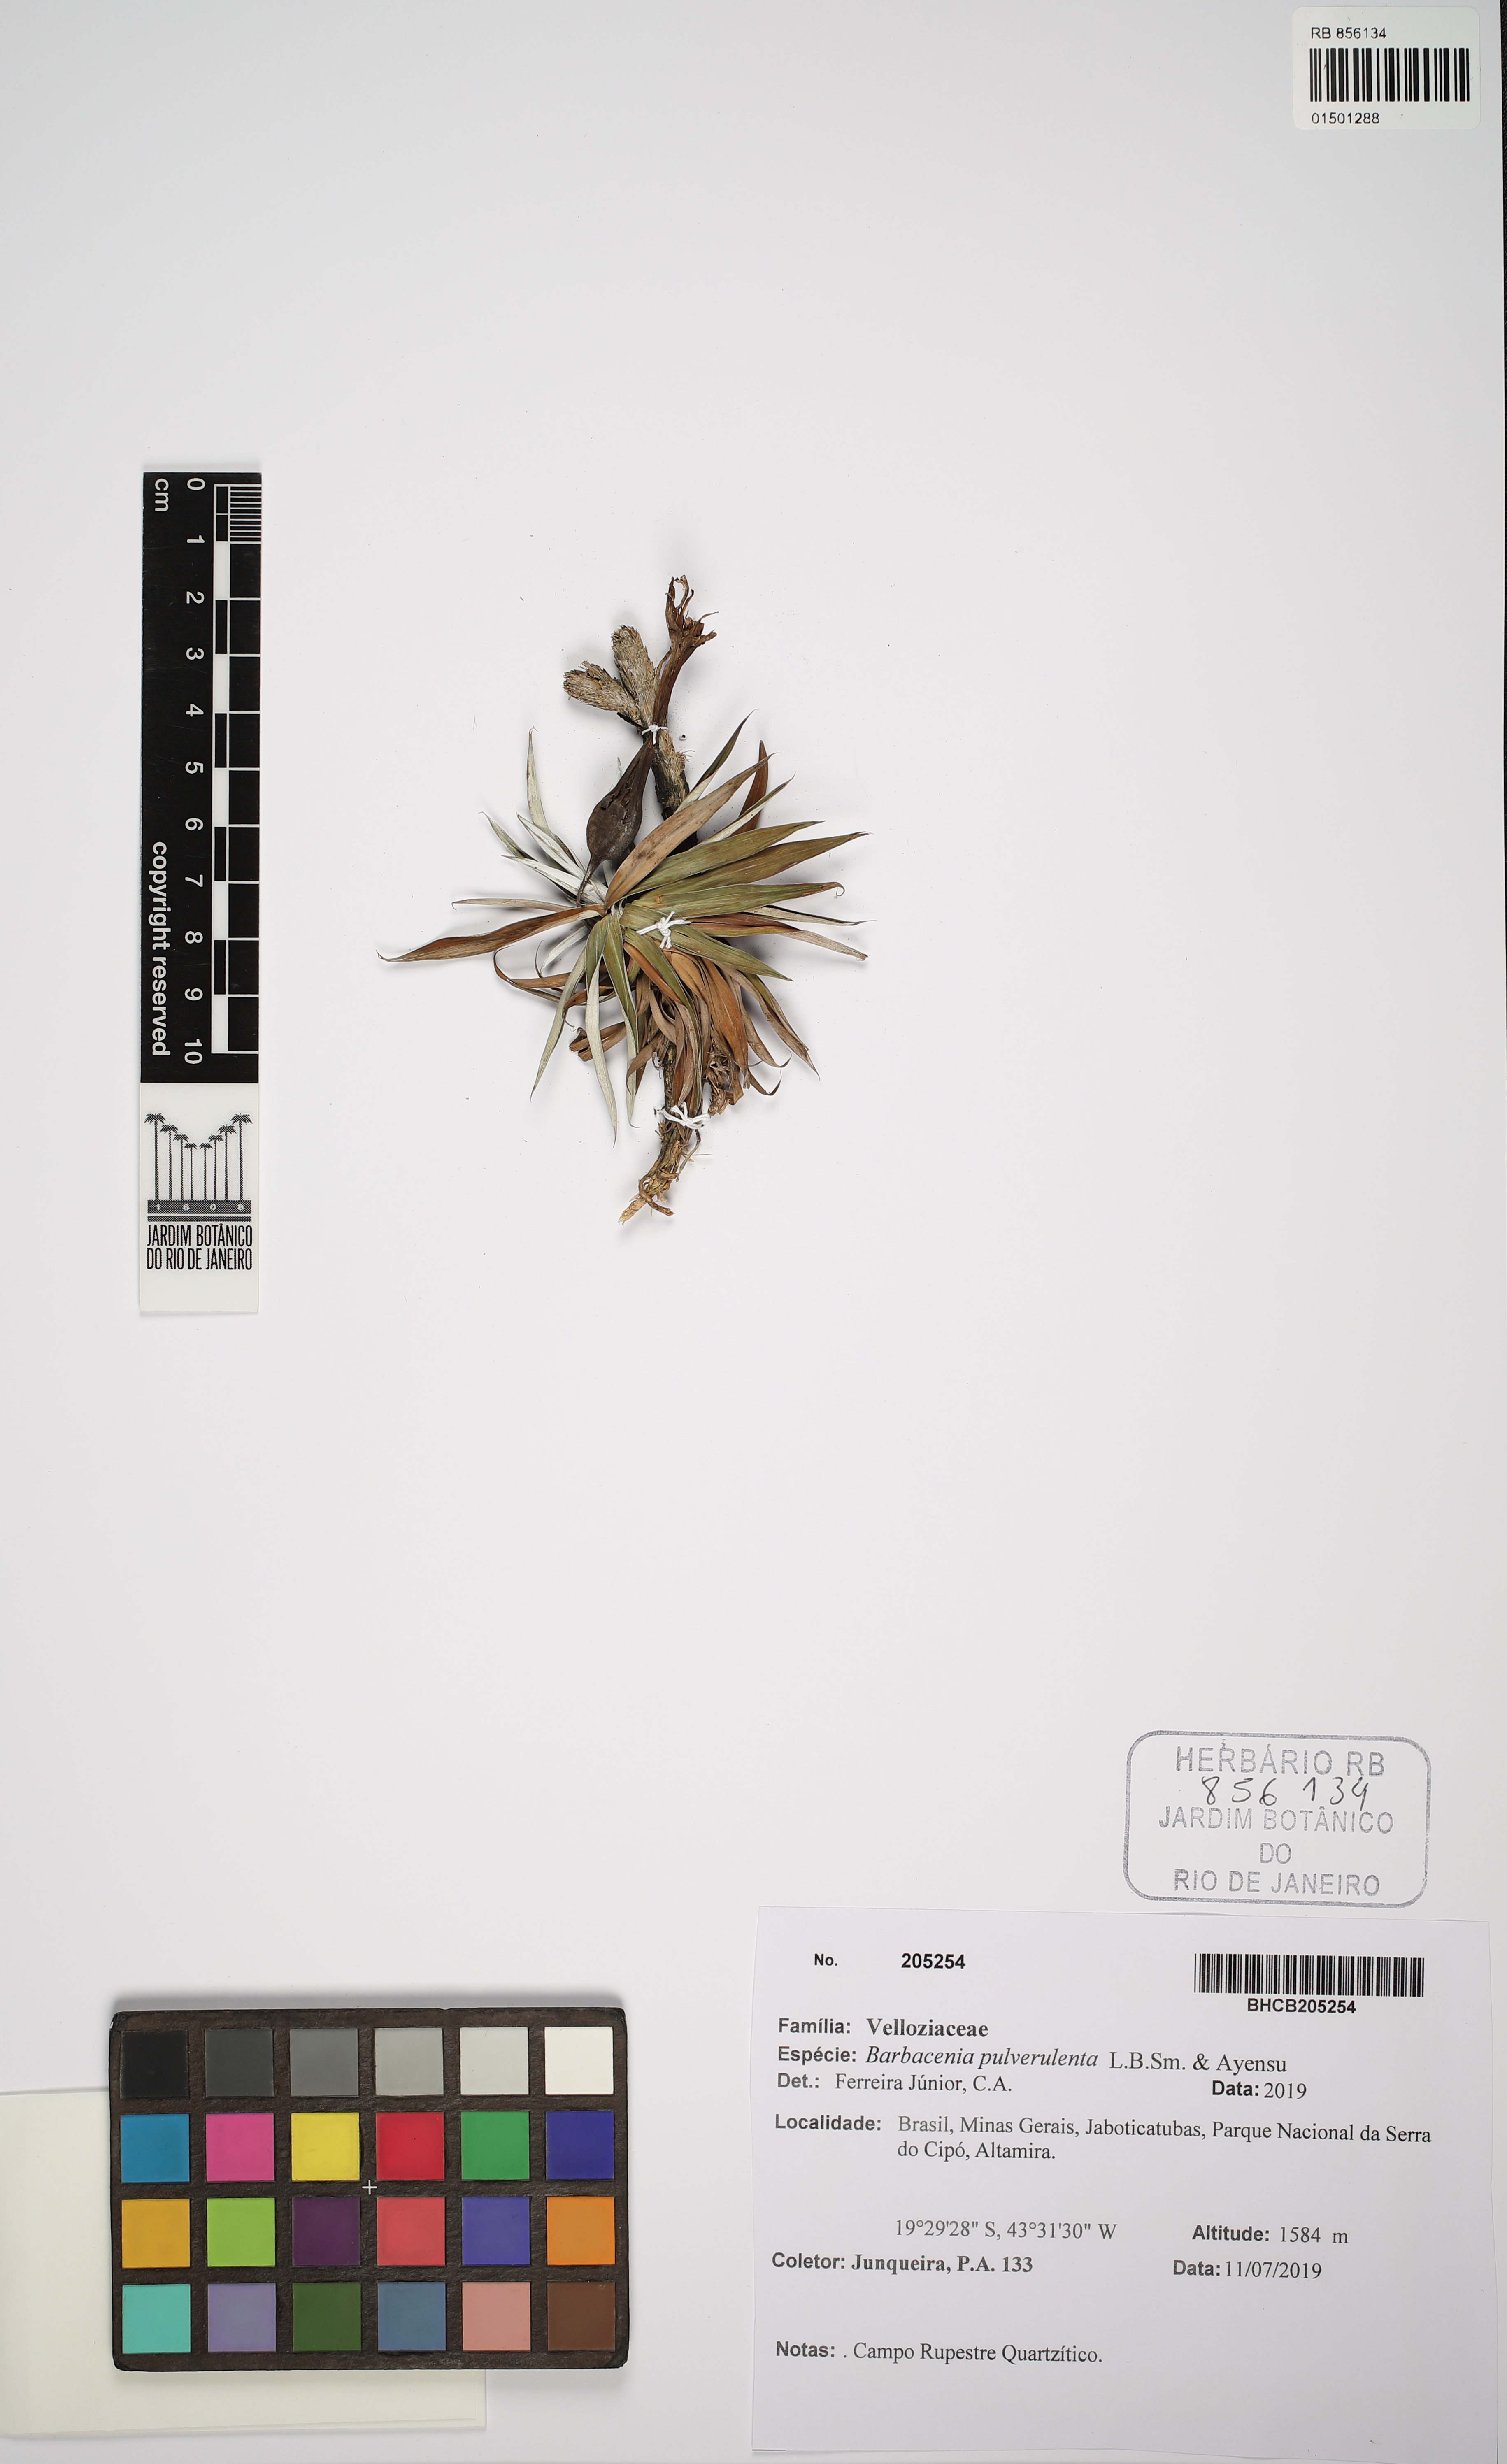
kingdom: Plantae
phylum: Tracheophyta
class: Liliopsida
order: Pandanales
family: Velloziaceae
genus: Barbacenia
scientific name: Barbacenia pulverulenta
